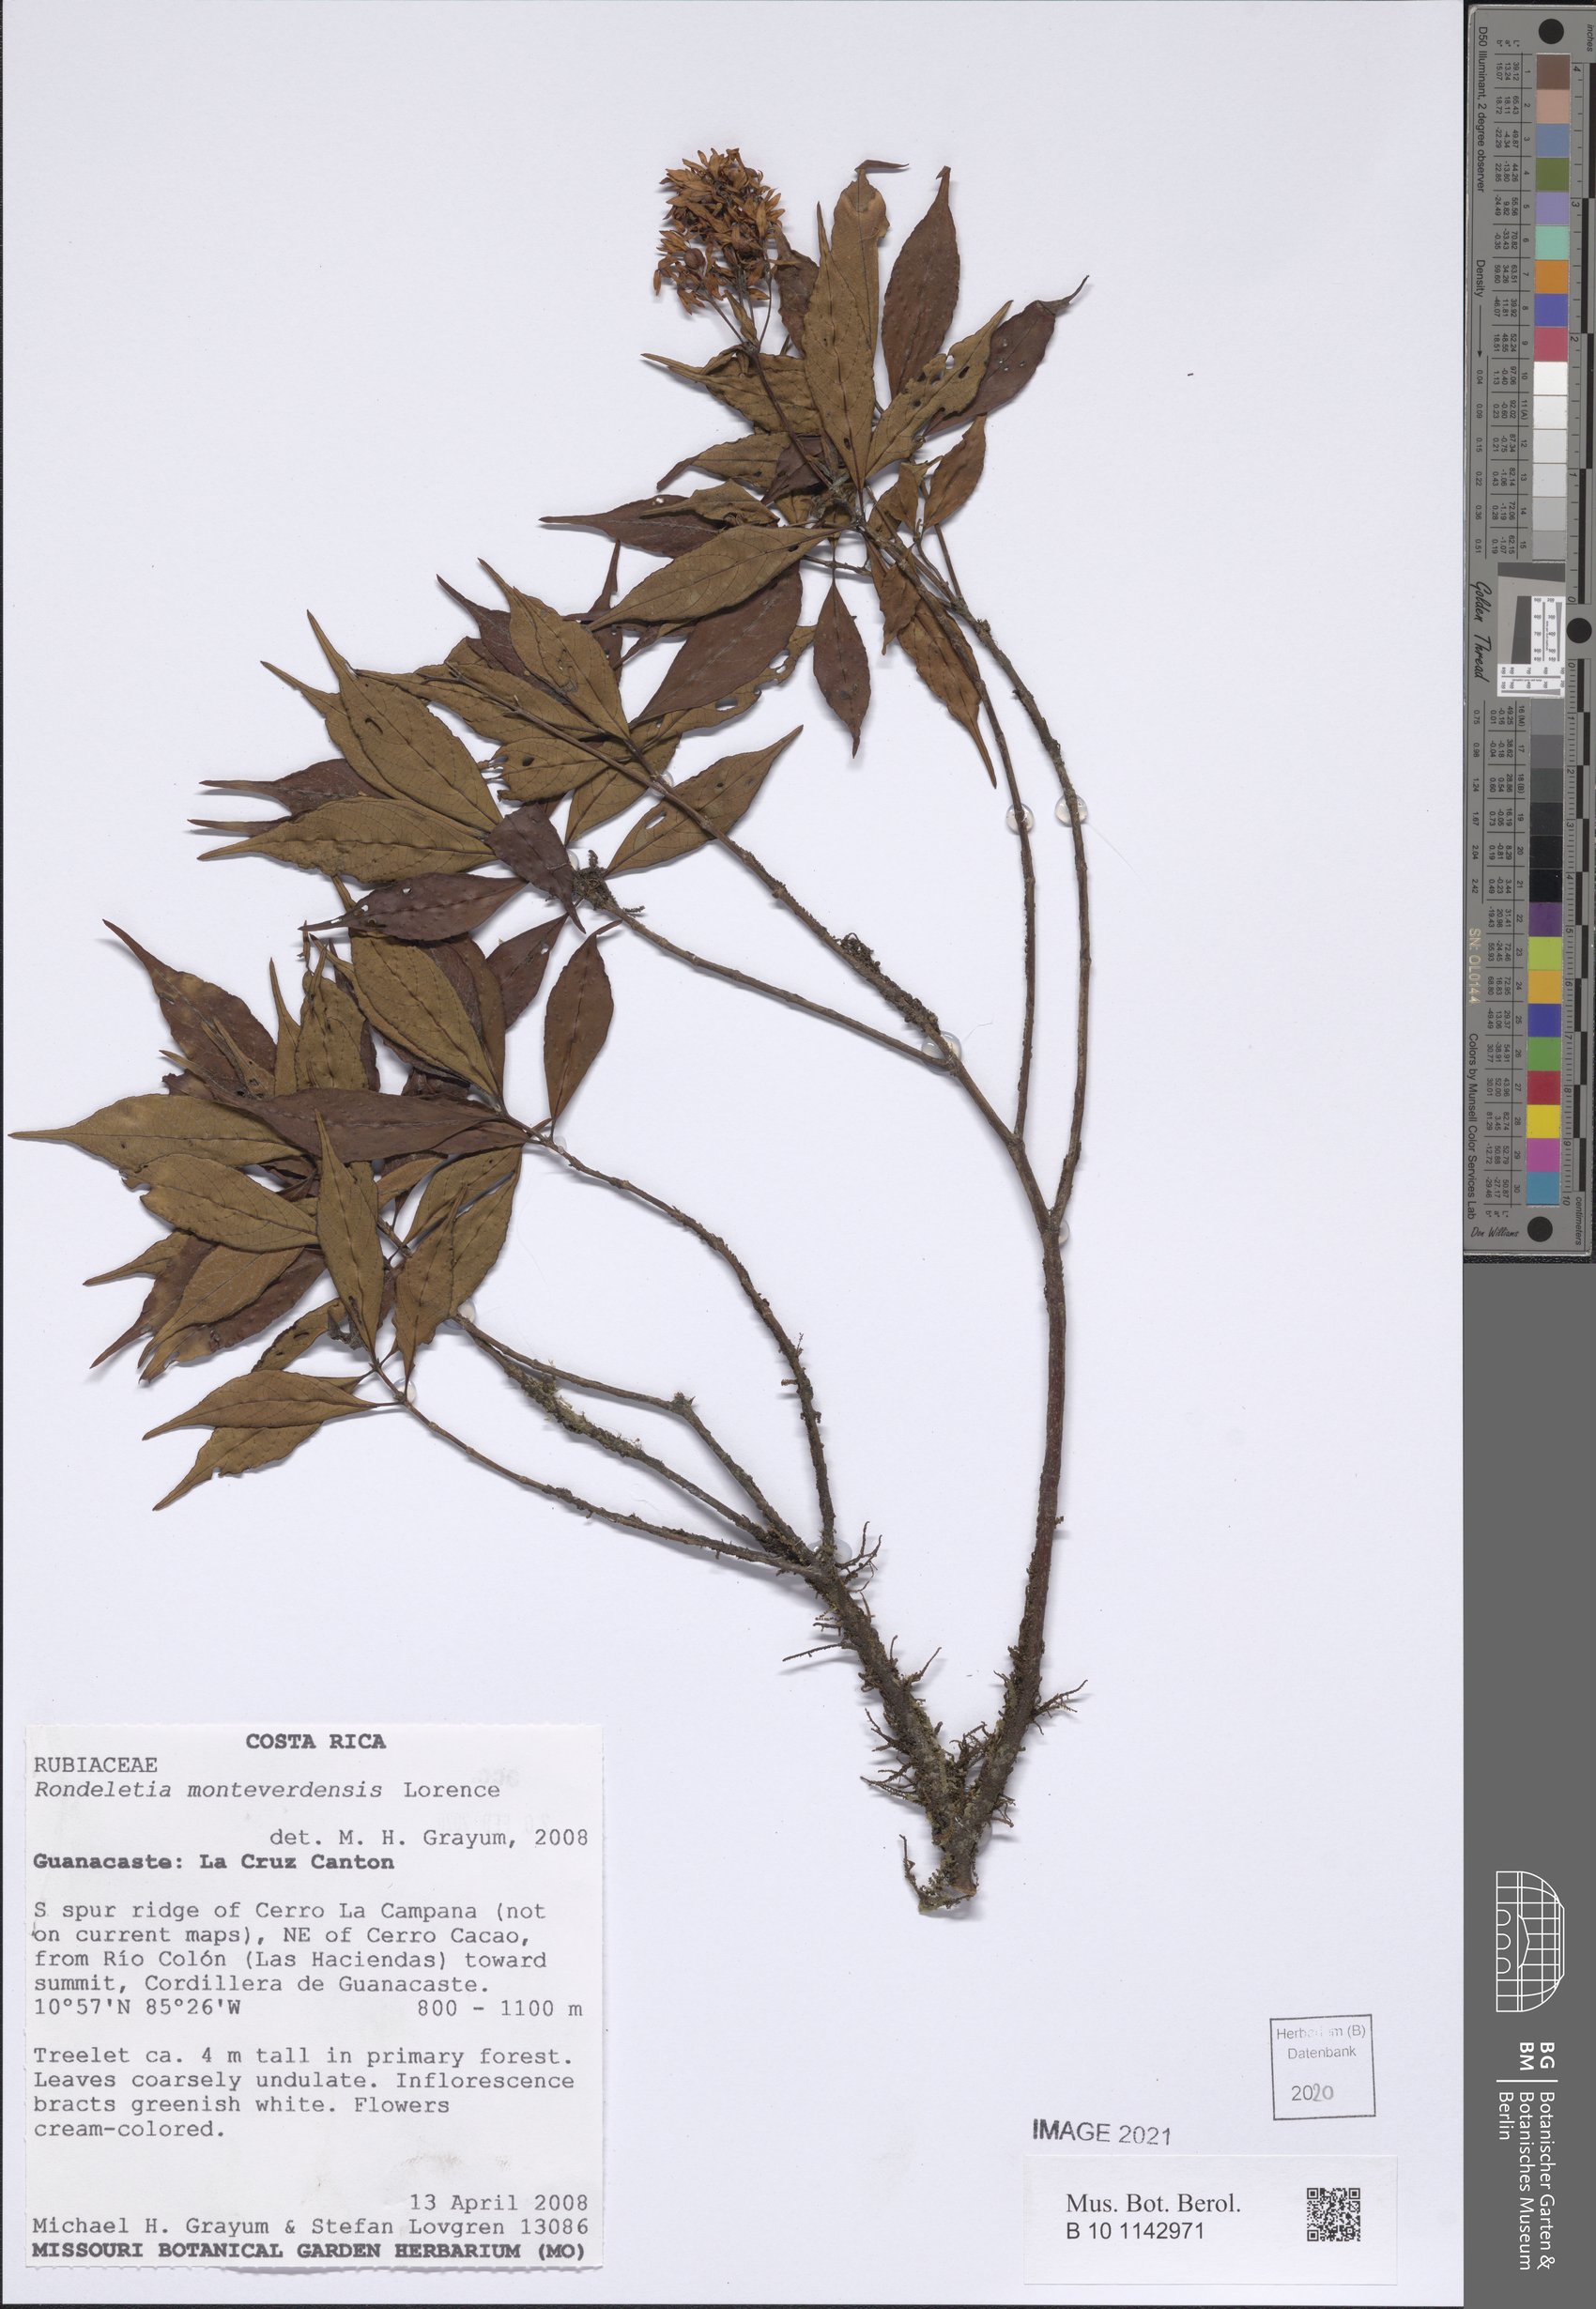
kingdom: Plantae
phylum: Tracheophyta
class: Liliopsida
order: Asparagales
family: Orchidaceae
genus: Elleanthus
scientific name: Elleanthus lancifolius
